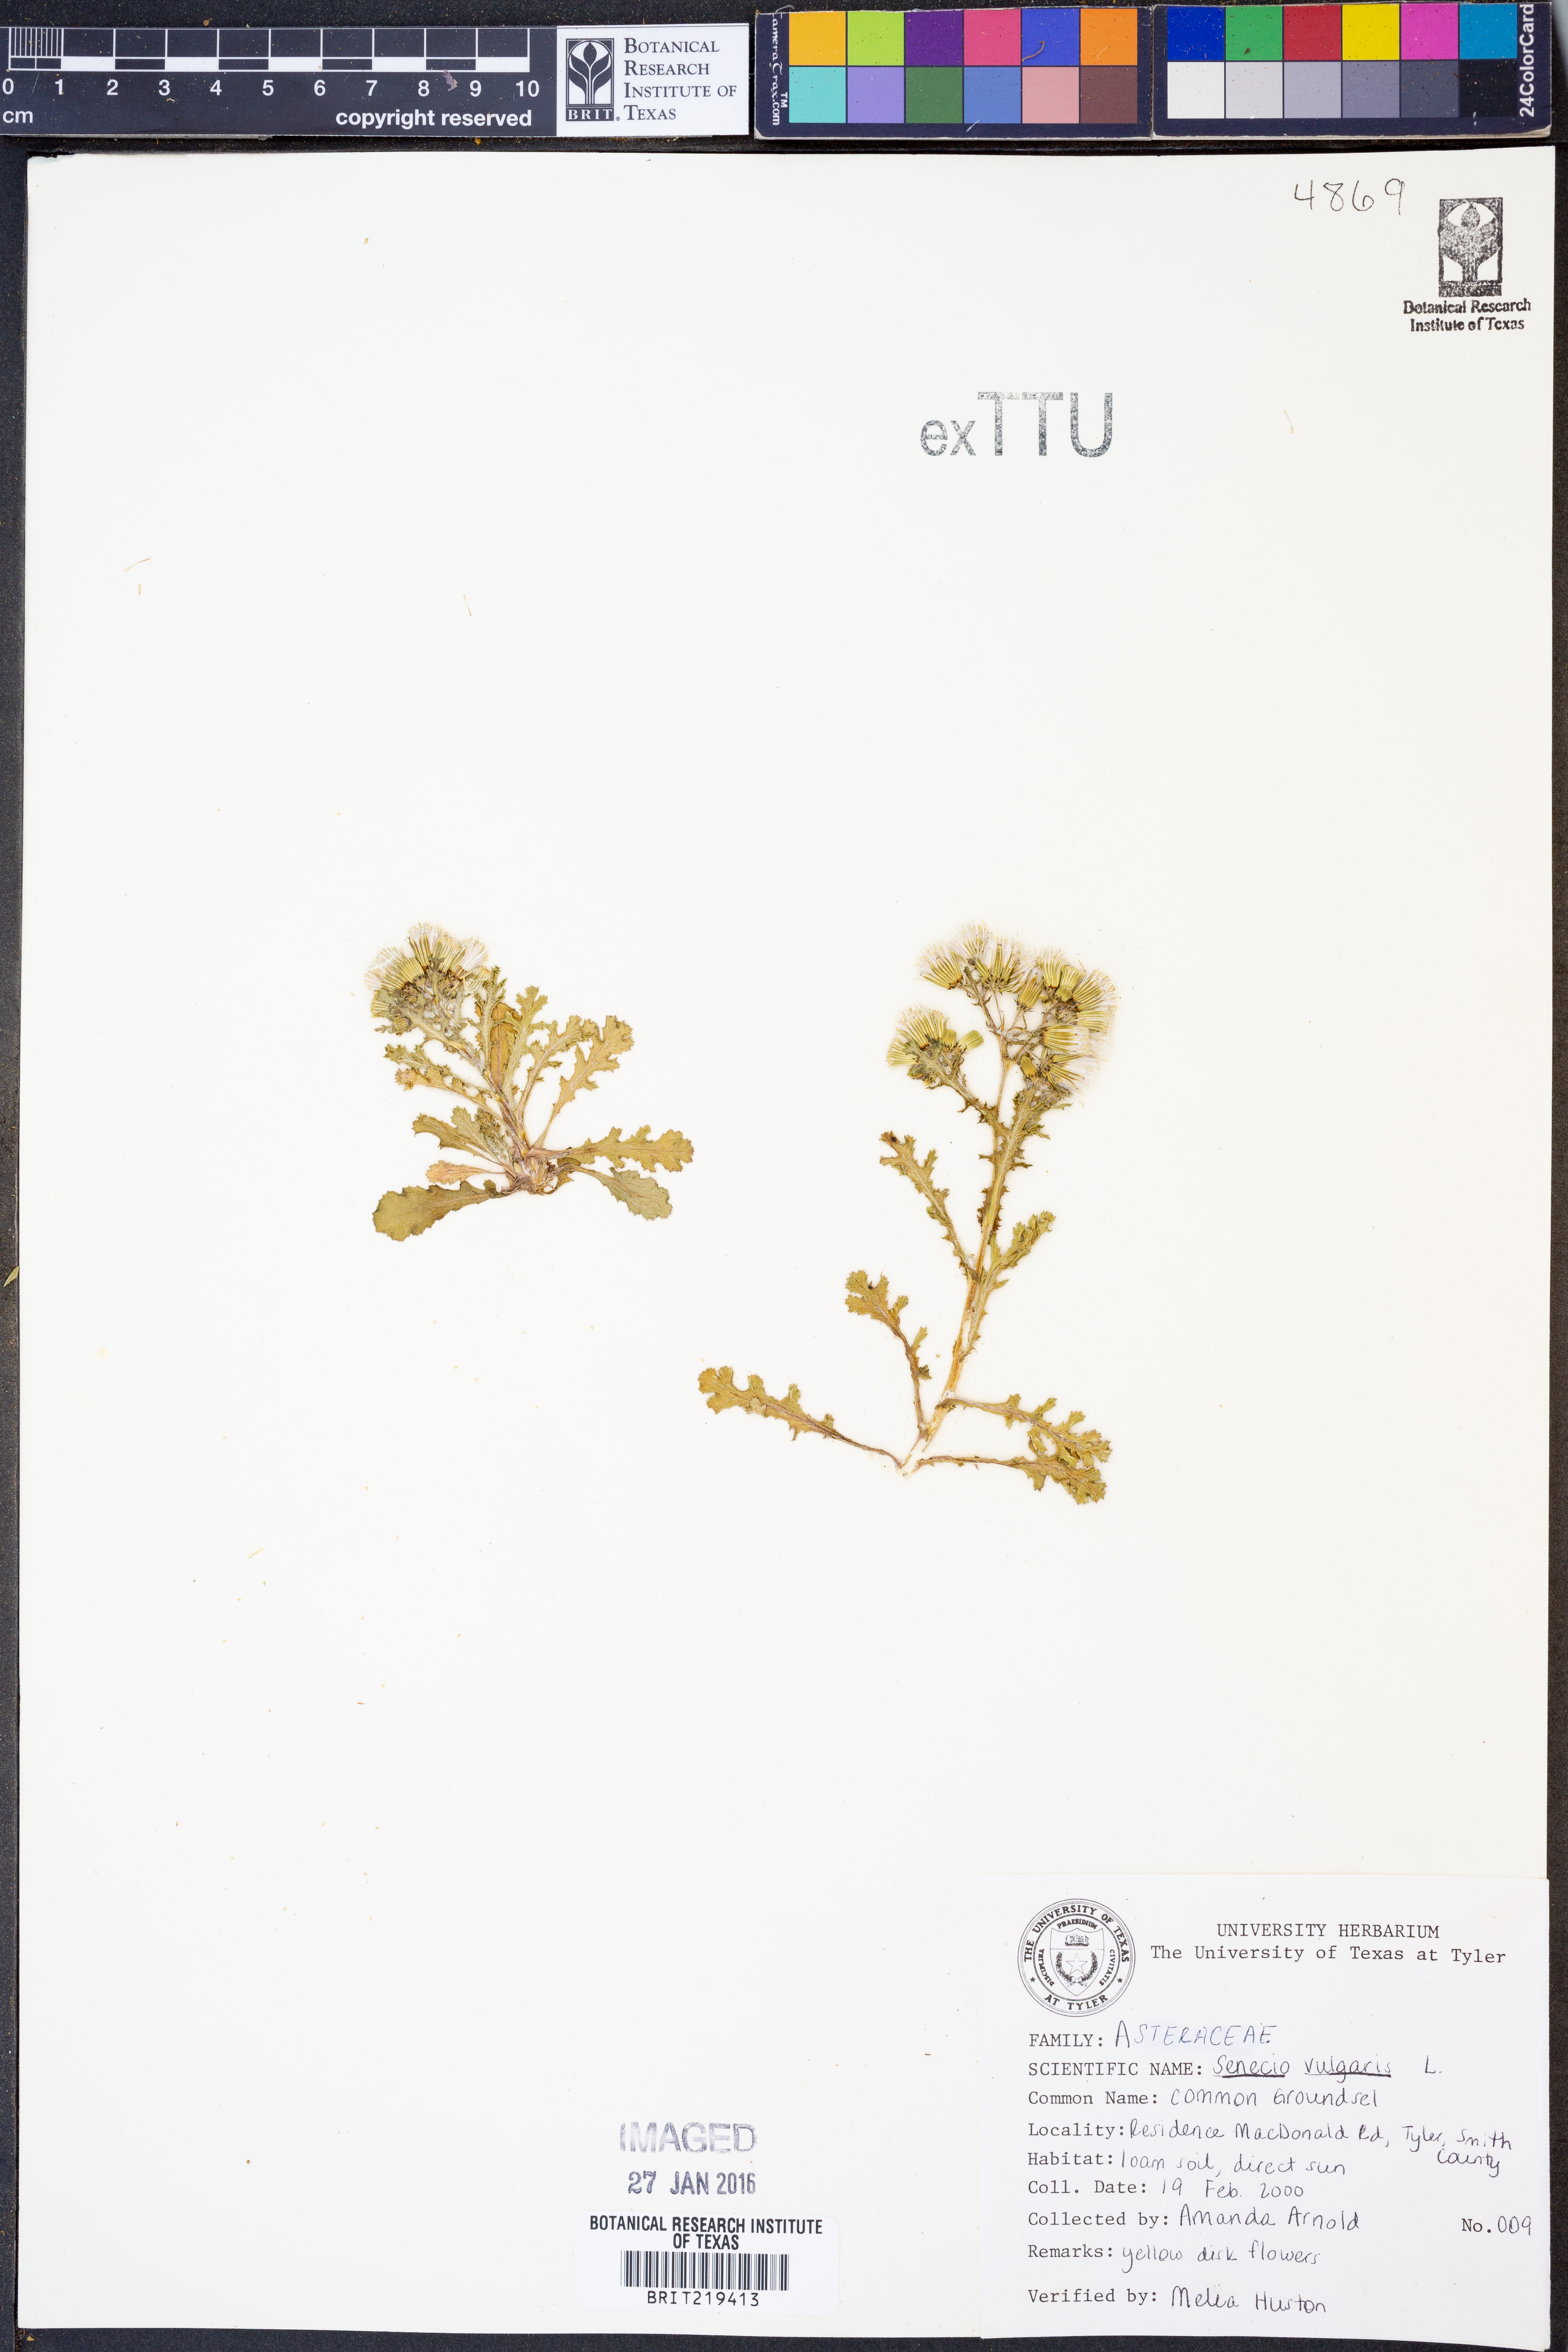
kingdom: Plantae
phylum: Tracheophyta
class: Magnoliopsida
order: Asterales
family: Asteraceae
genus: Senecio
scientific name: Senecio vulgaris
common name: Old-man-in-the-spring
